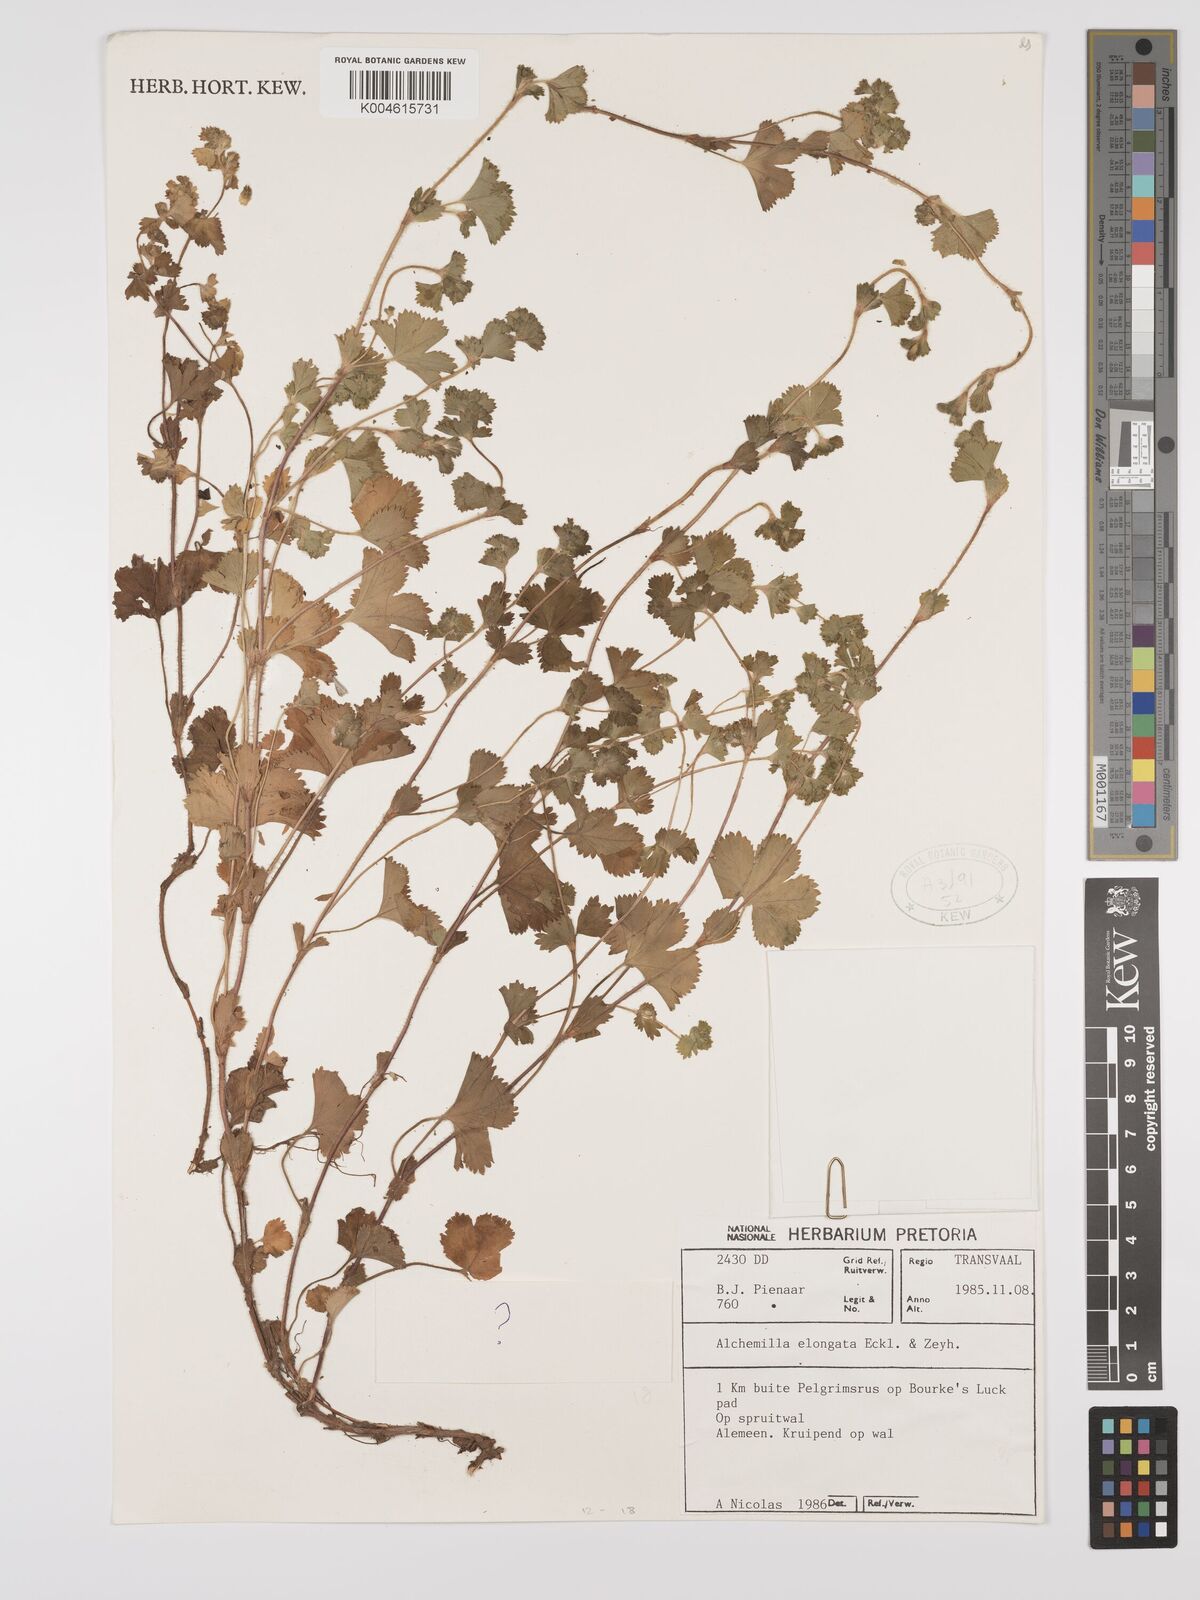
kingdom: Plantae
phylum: Tracheophyta
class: Magnoliopsida
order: Rosales
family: Rosaceae
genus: Alchemilla
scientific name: Alchemilla elongata
